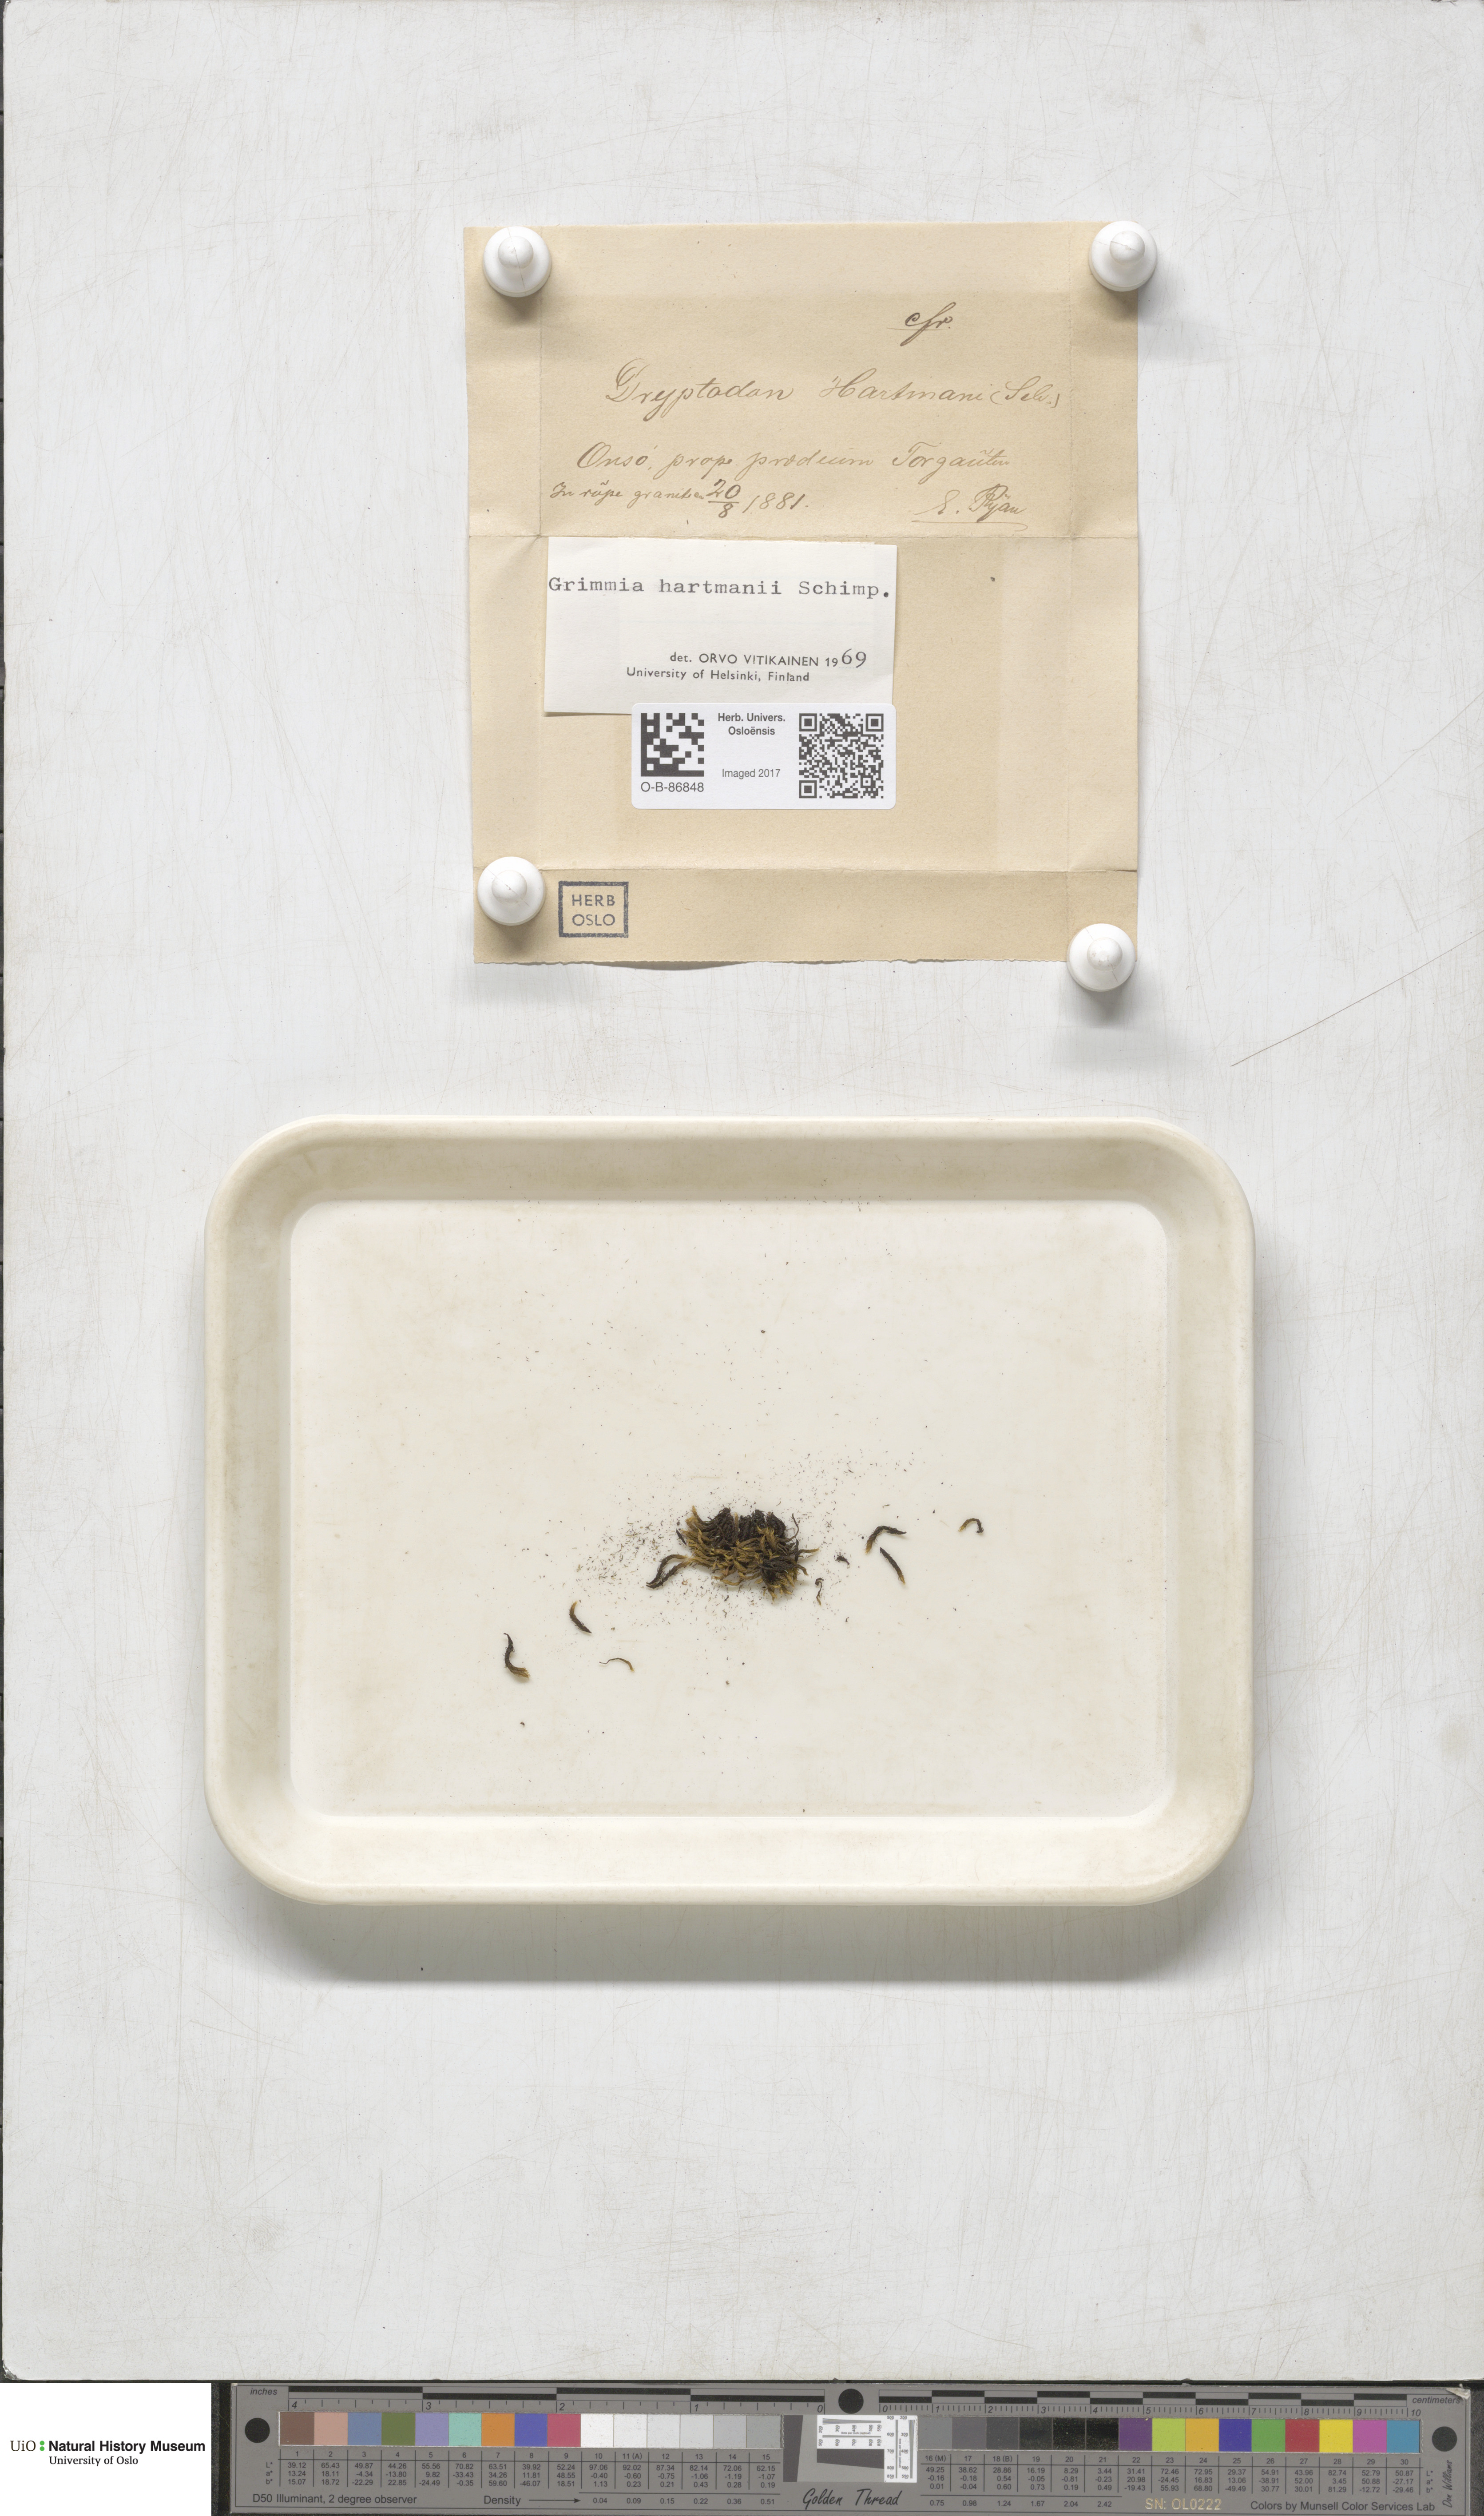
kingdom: Plantae
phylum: Bryophyta
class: Bryopsida
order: Grimmiales
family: Grimmiaceae
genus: Grimmia
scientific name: Grimmia hartmanii
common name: Hartman's grimmia
